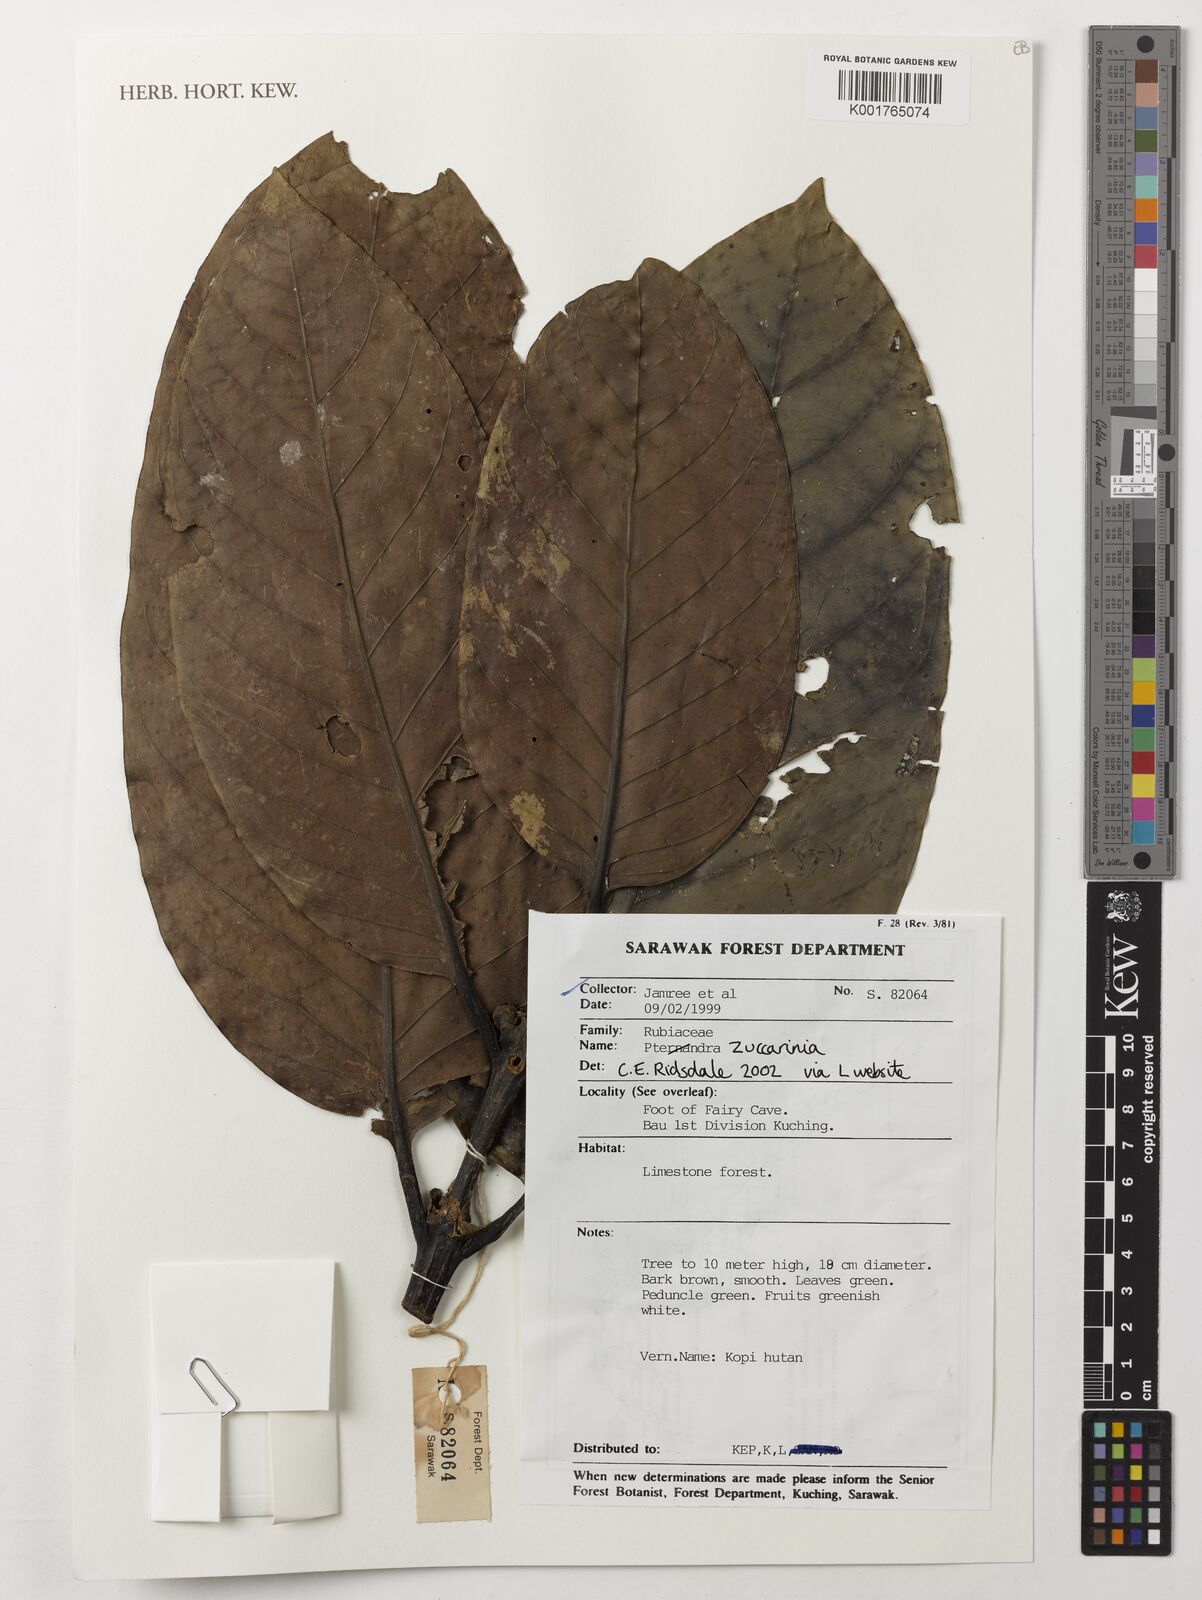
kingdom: Plantae
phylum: Tracheophyta
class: Magnoliopsida
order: Gentianales
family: Rubiaceae
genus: Zuccarinia
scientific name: Zuccarinia
